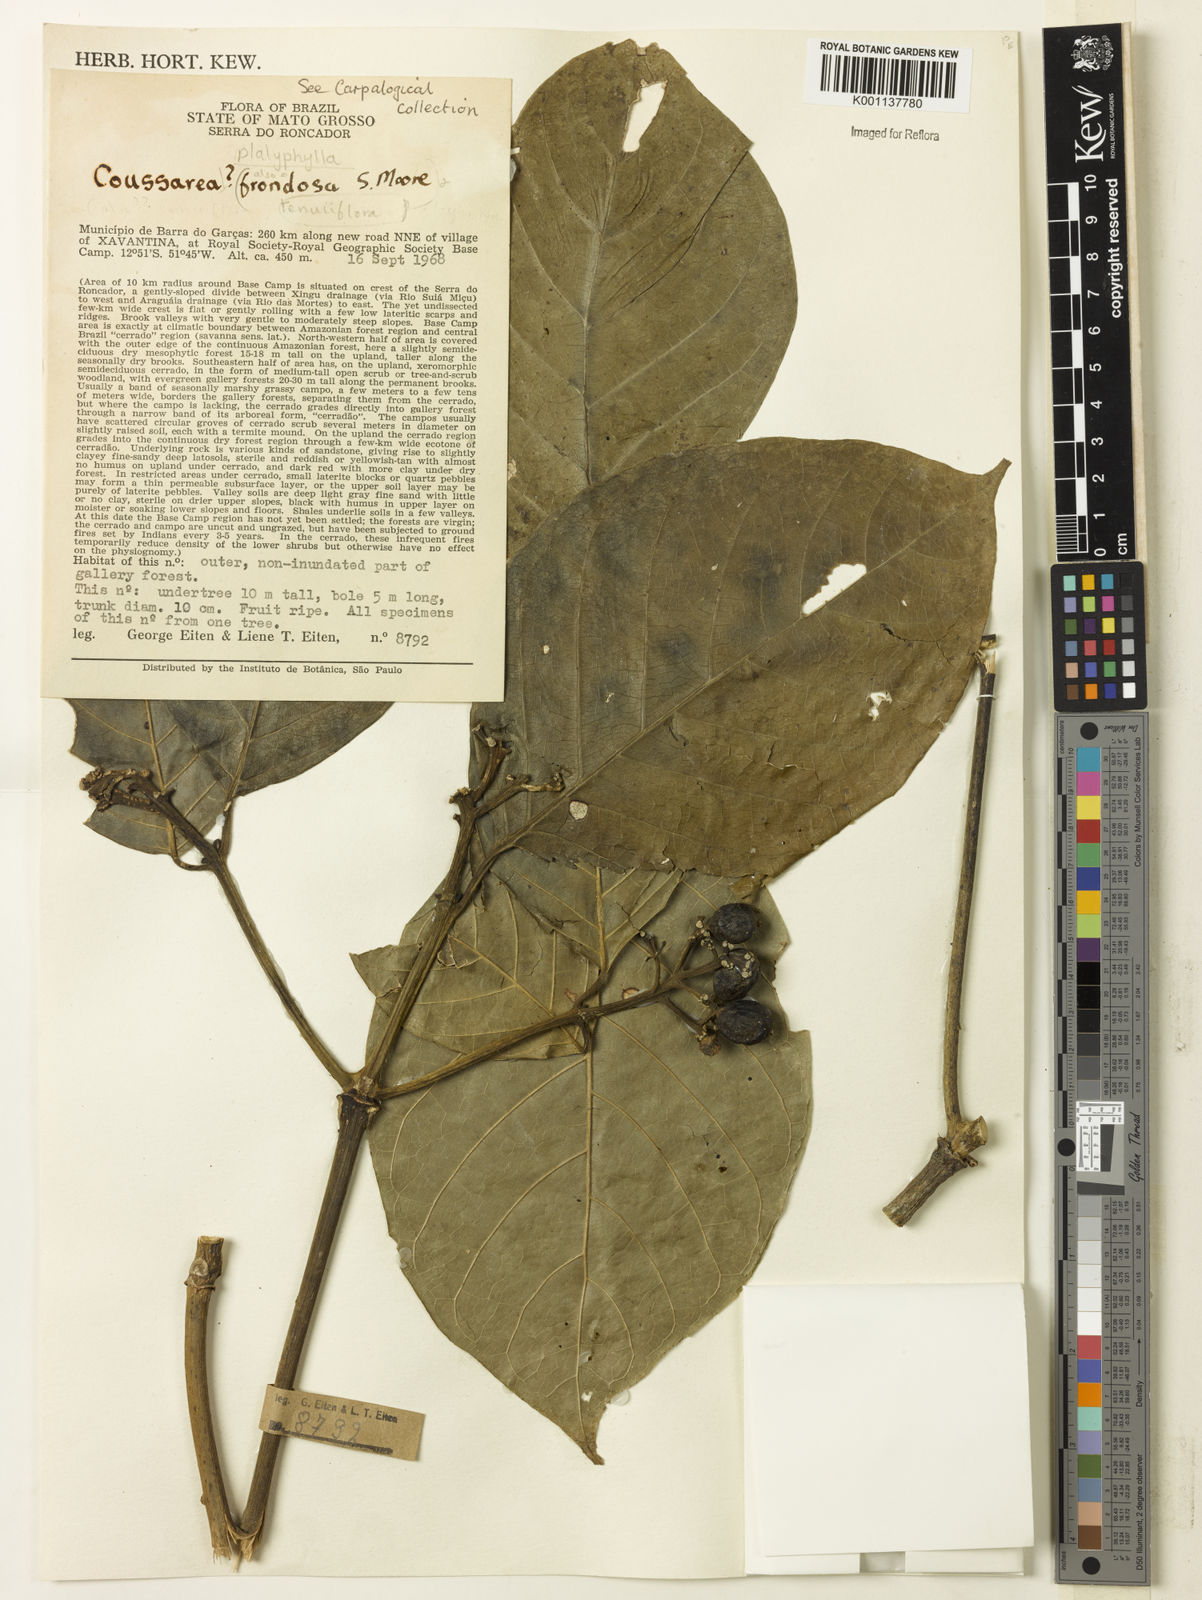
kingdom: Plantae
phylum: Tracheophyta
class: Magnoliopsida
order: Gentianales
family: Rubiaceae
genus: Coussarea
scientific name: Coussarea
